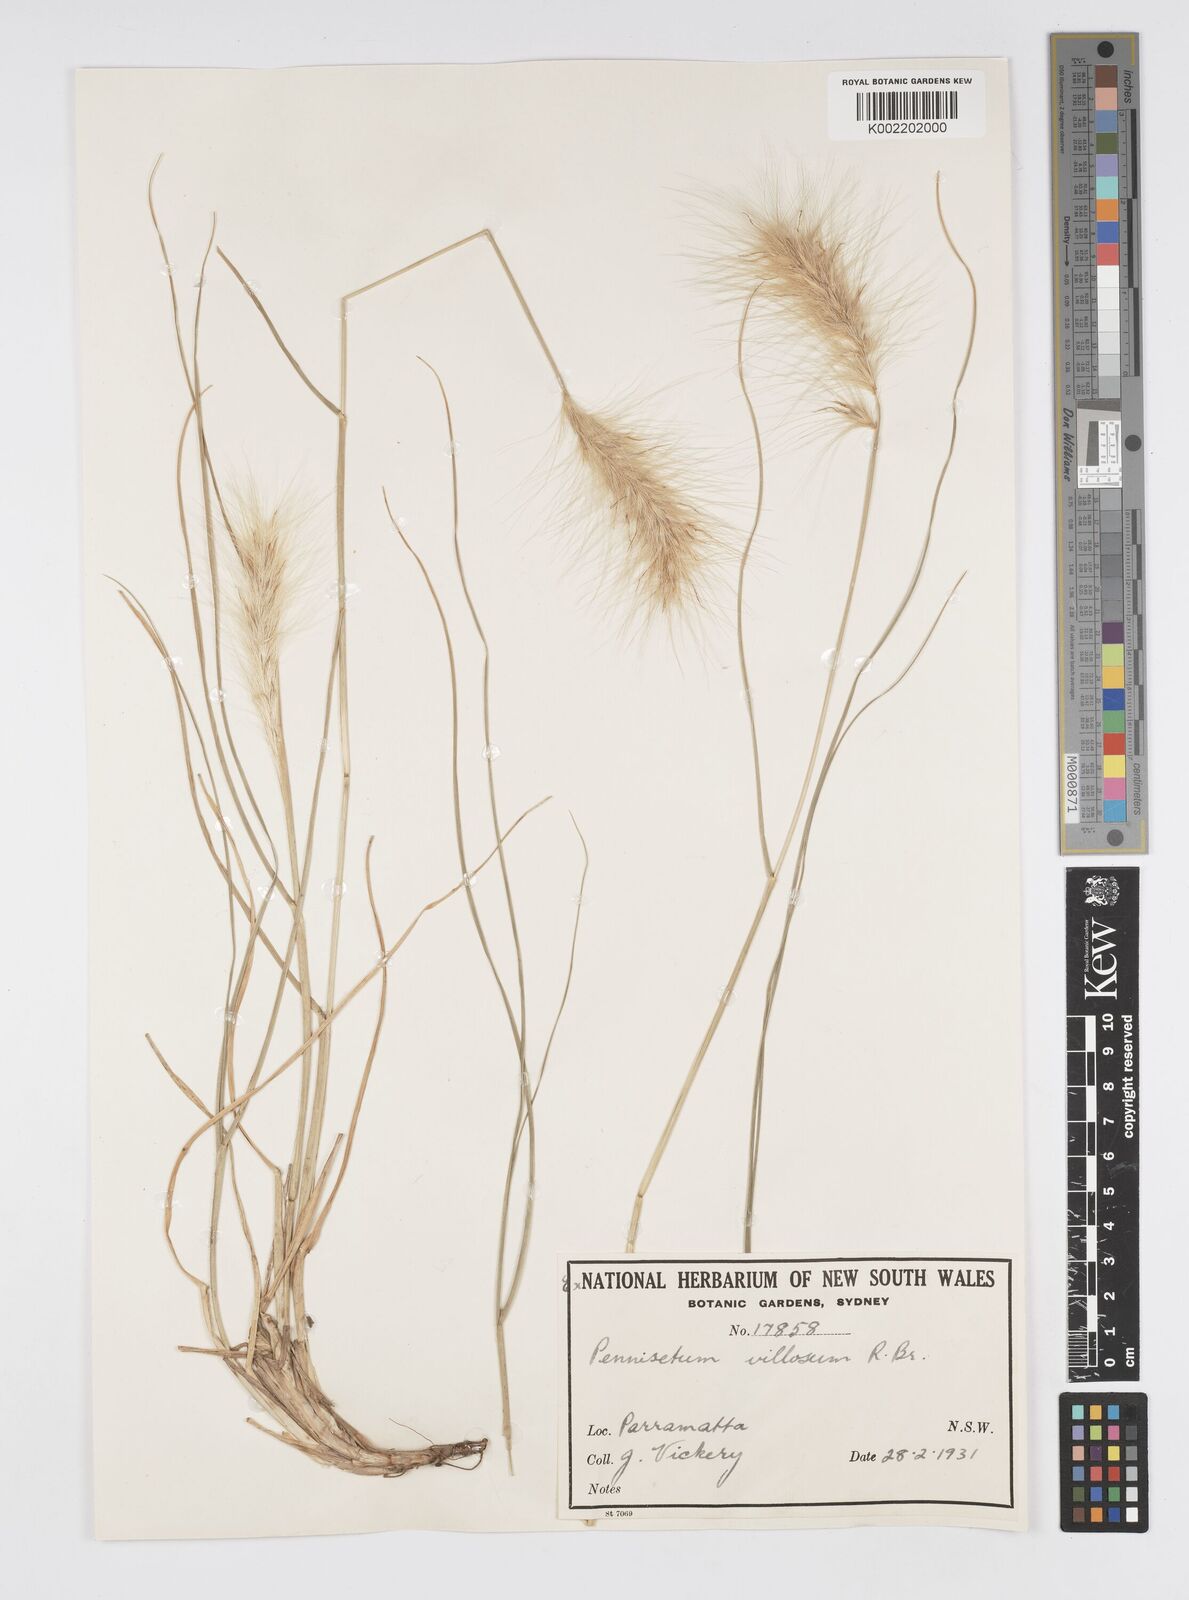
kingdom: Plantae
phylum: Tracheophyta
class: Liliopsida
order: Poales
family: Poaceae
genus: Cenchrus
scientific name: Cenchrus longisetus
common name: Feathertop
